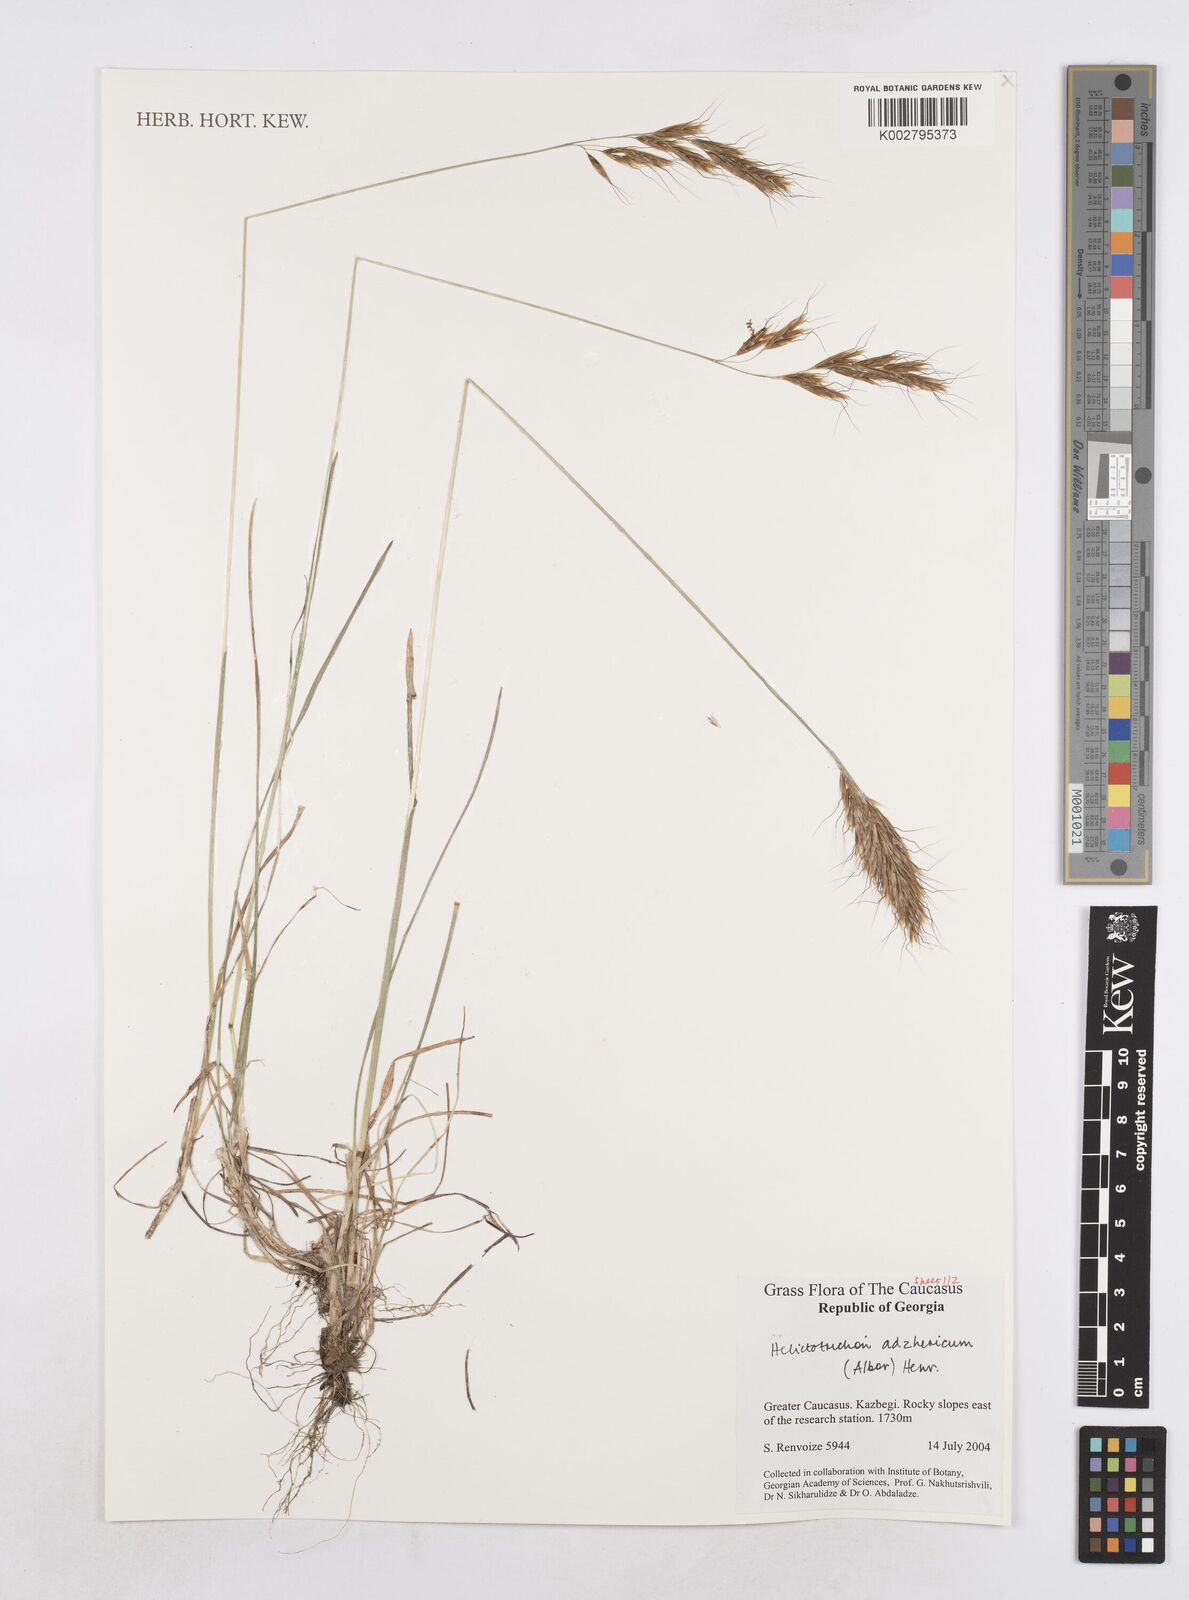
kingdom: Plantae
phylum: Tracheophyta
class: Liliopsida
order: Poales
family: Poaceae
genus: Helictotrichon
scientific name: Helictotrichon
